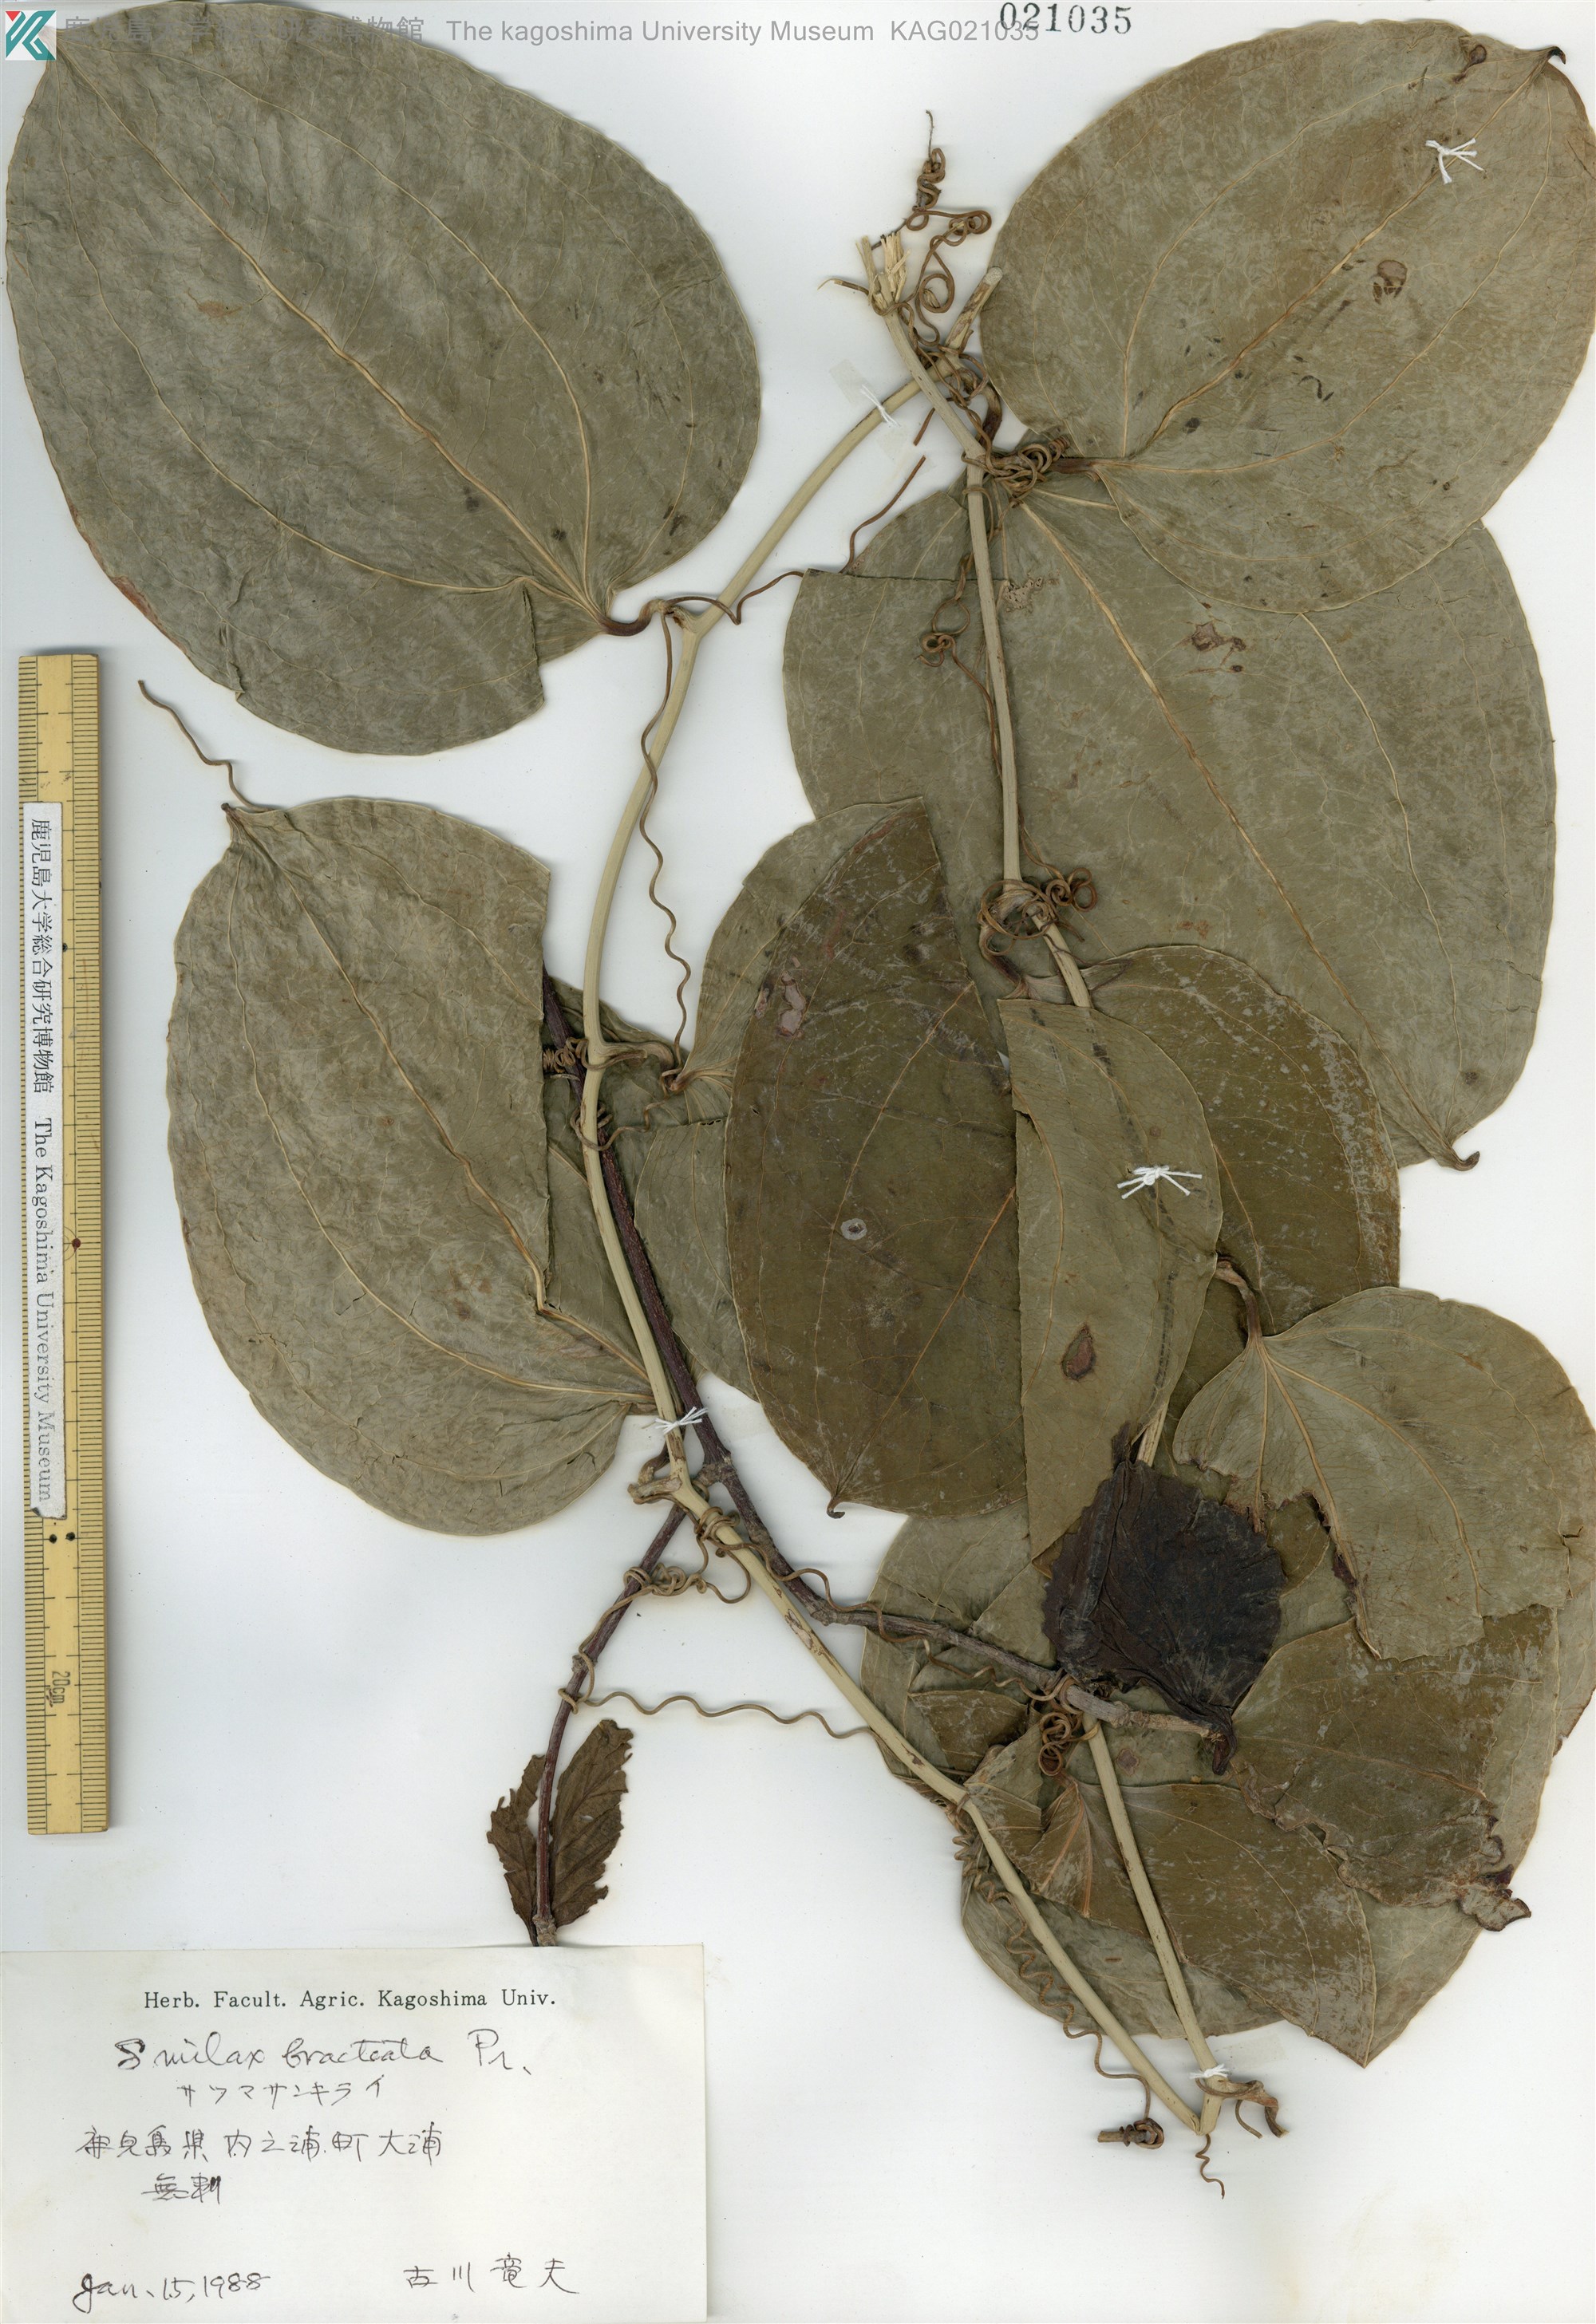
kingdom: Plantae
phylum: Tracheophyta
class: Liliopsida
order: Liliales
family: Smilacaceae
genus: Smilax
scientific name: Smilax bracteata
